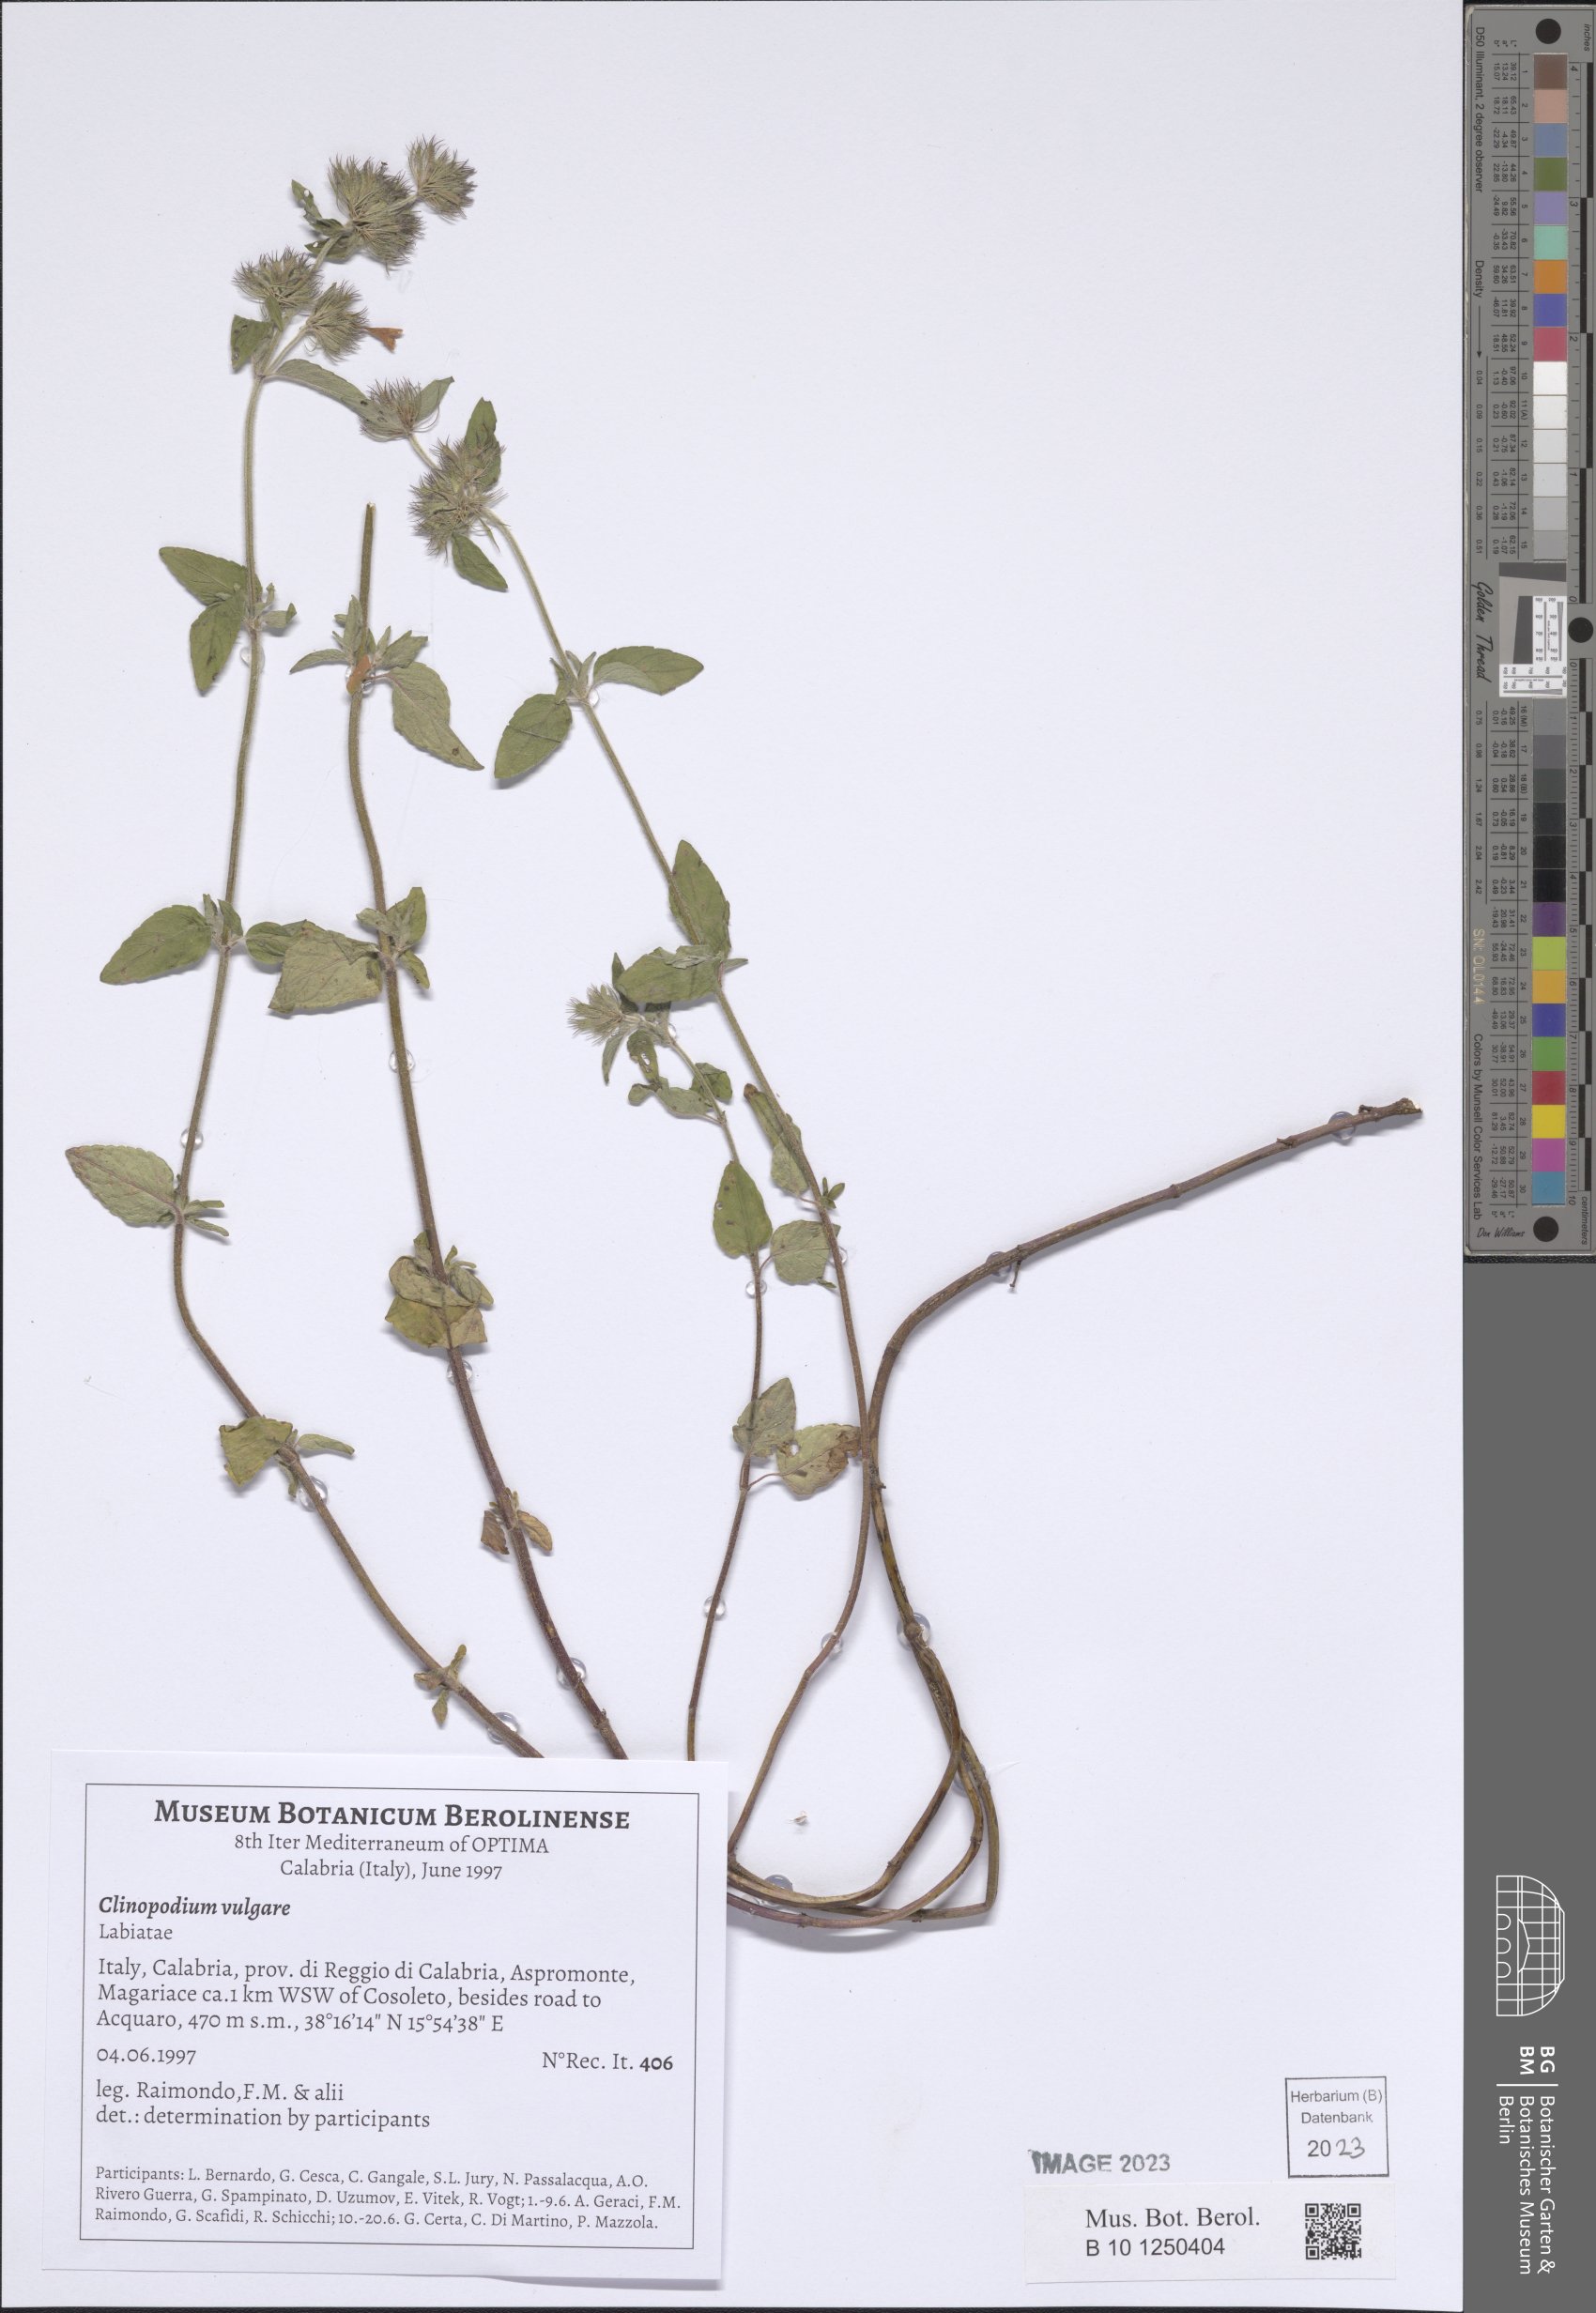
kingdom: Plantae
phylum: Tracheophyta
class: Magnoliopsida
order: Lamiales
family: Lamiaceae
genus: Clinopodium
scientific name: Clinopodium vulgare
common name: Wild basil
